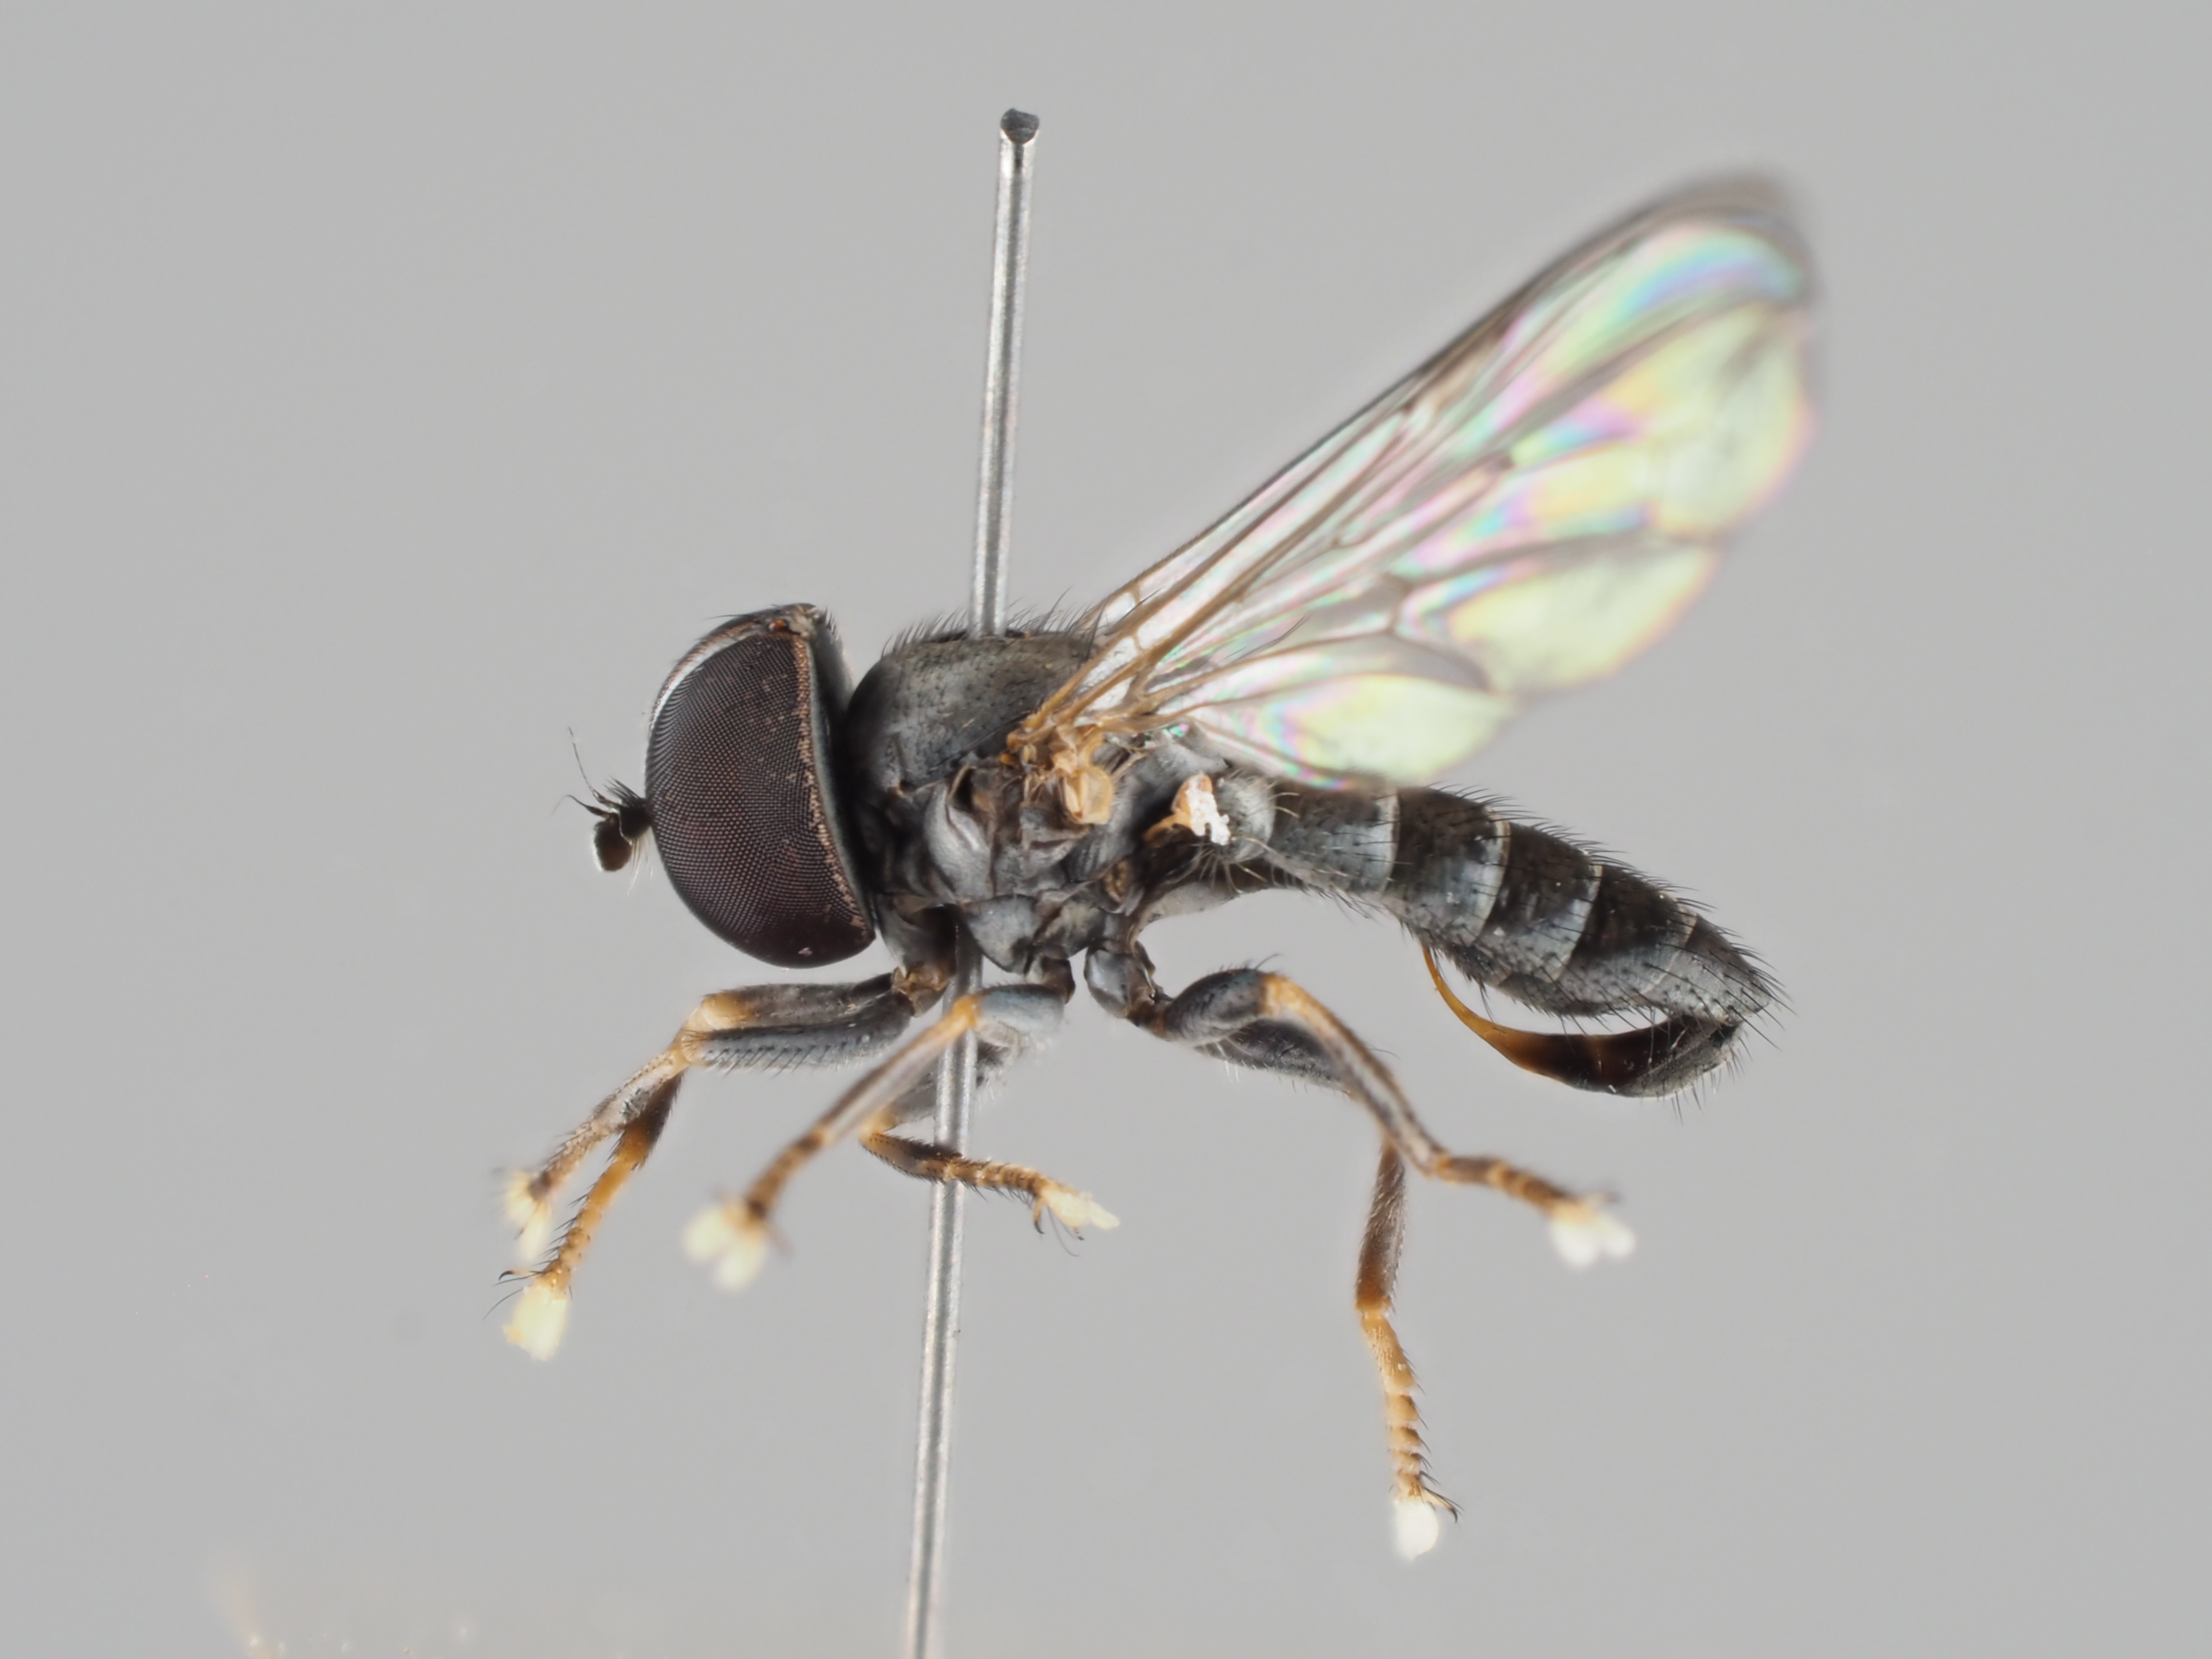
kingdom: Animalia
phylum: Arthropoda
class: Insecta
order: Diptera
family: Pipunculidae
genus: Verrallia
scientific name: Verrallia aucta
